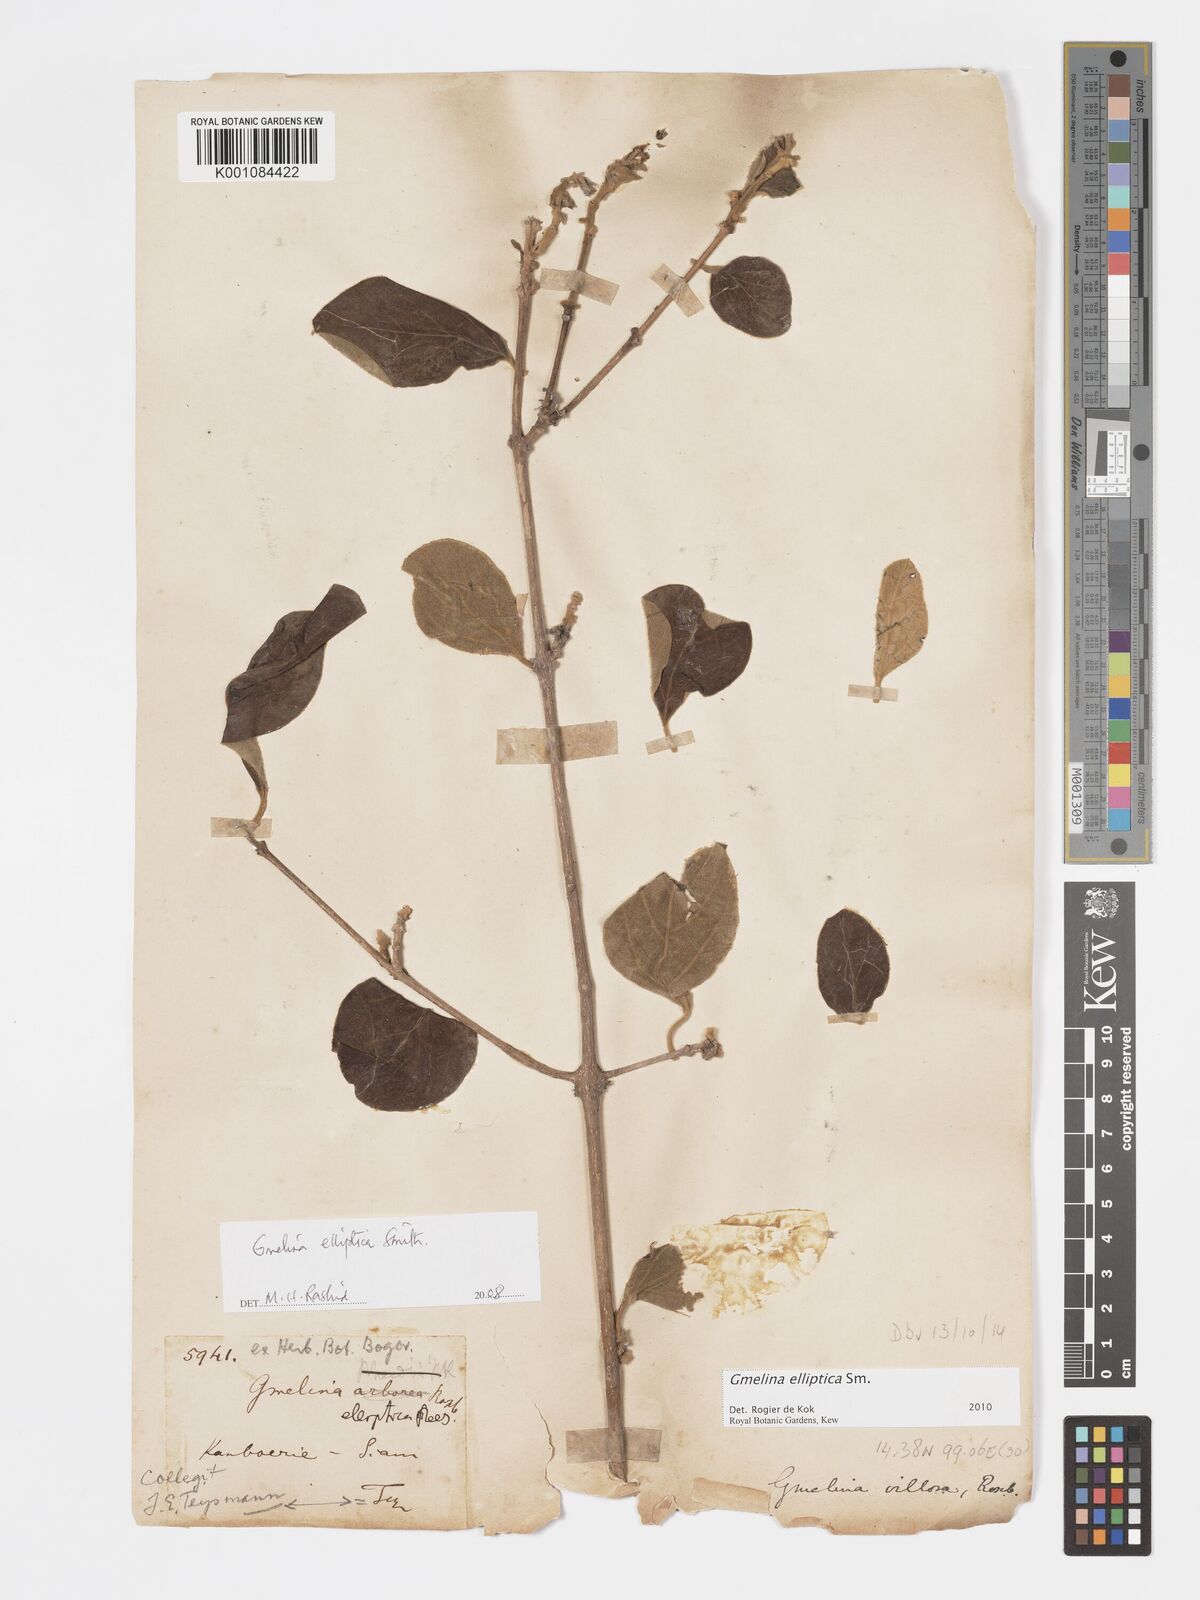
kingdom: Plantae
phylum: Tracheophyta
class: Magnoliopsida
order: Lamiales
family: Lamiaceae
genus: Gmelina
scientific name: Gmelina elliptica
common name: Badhara-bush
